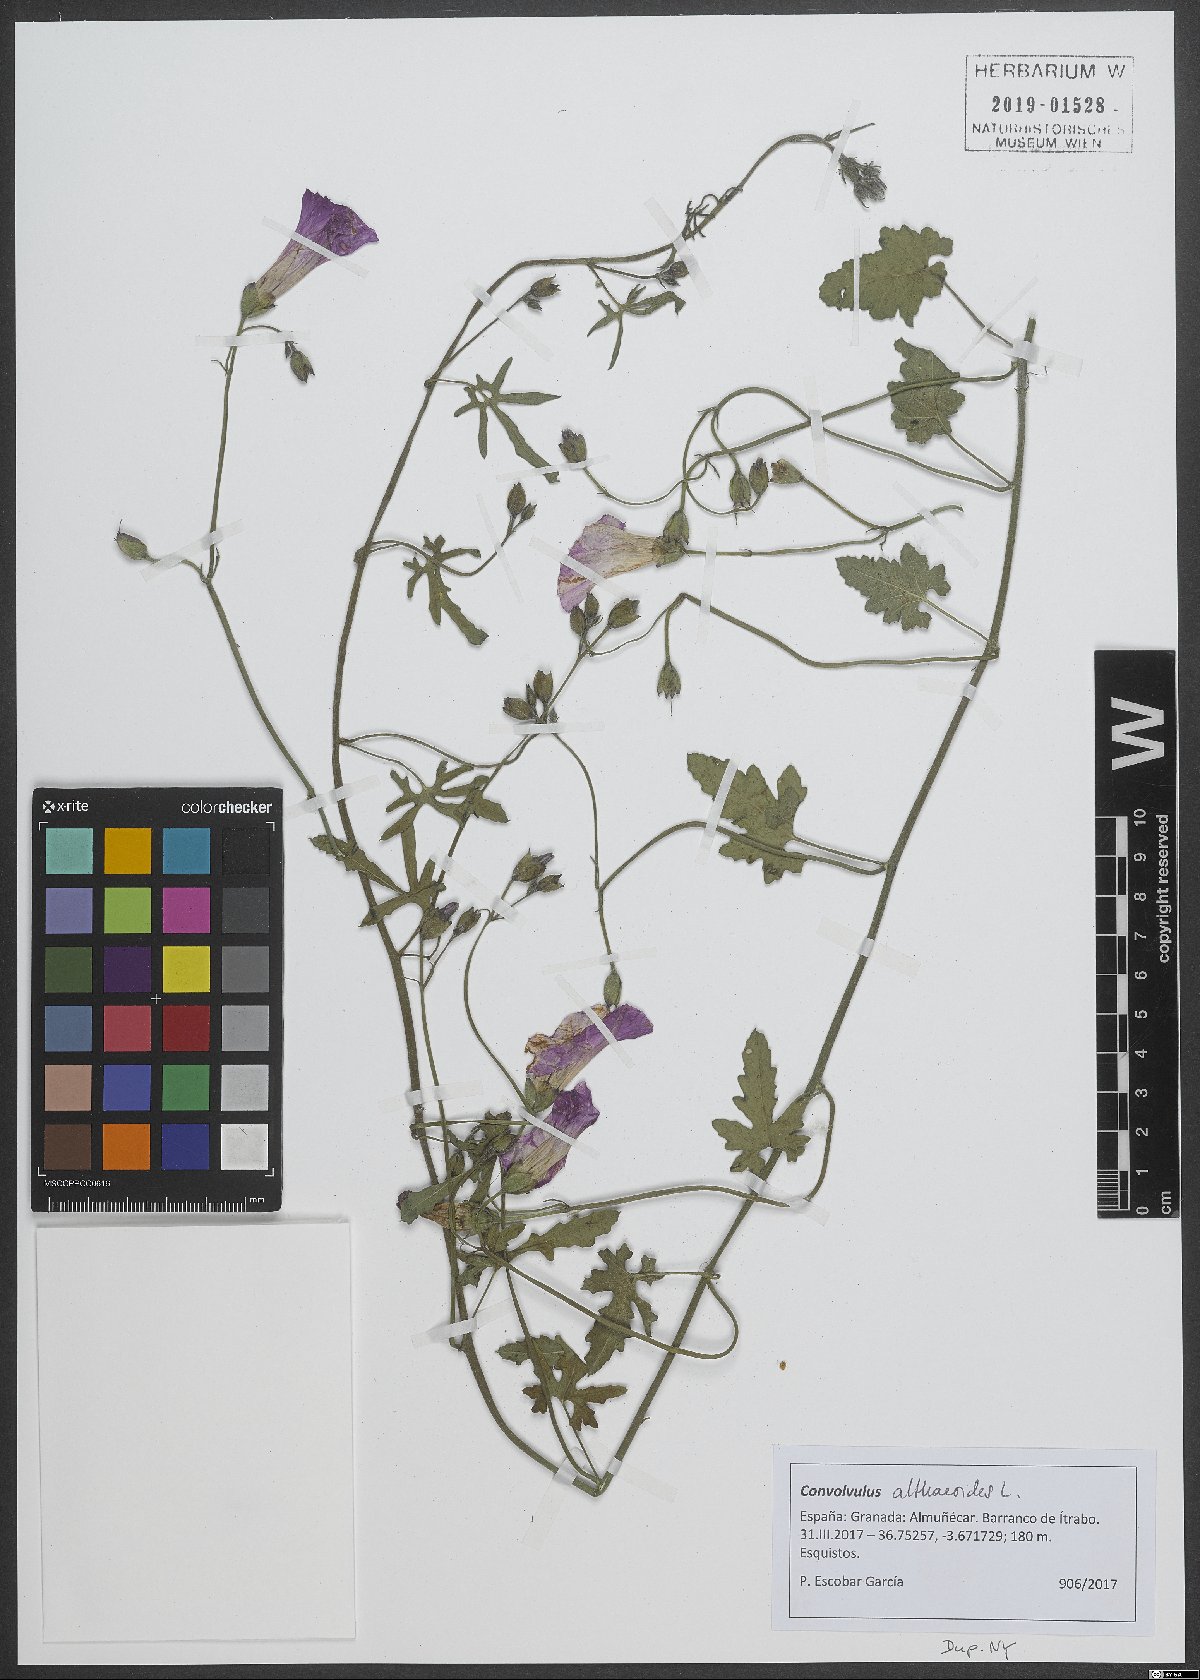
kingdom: Plantae
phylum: Tracheophyta
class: Magnoliopsida
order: Solanales
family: Convolvulaceae
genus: Convolvulus
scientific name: Convolvulus althaeoides
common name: Mallow bindweed
